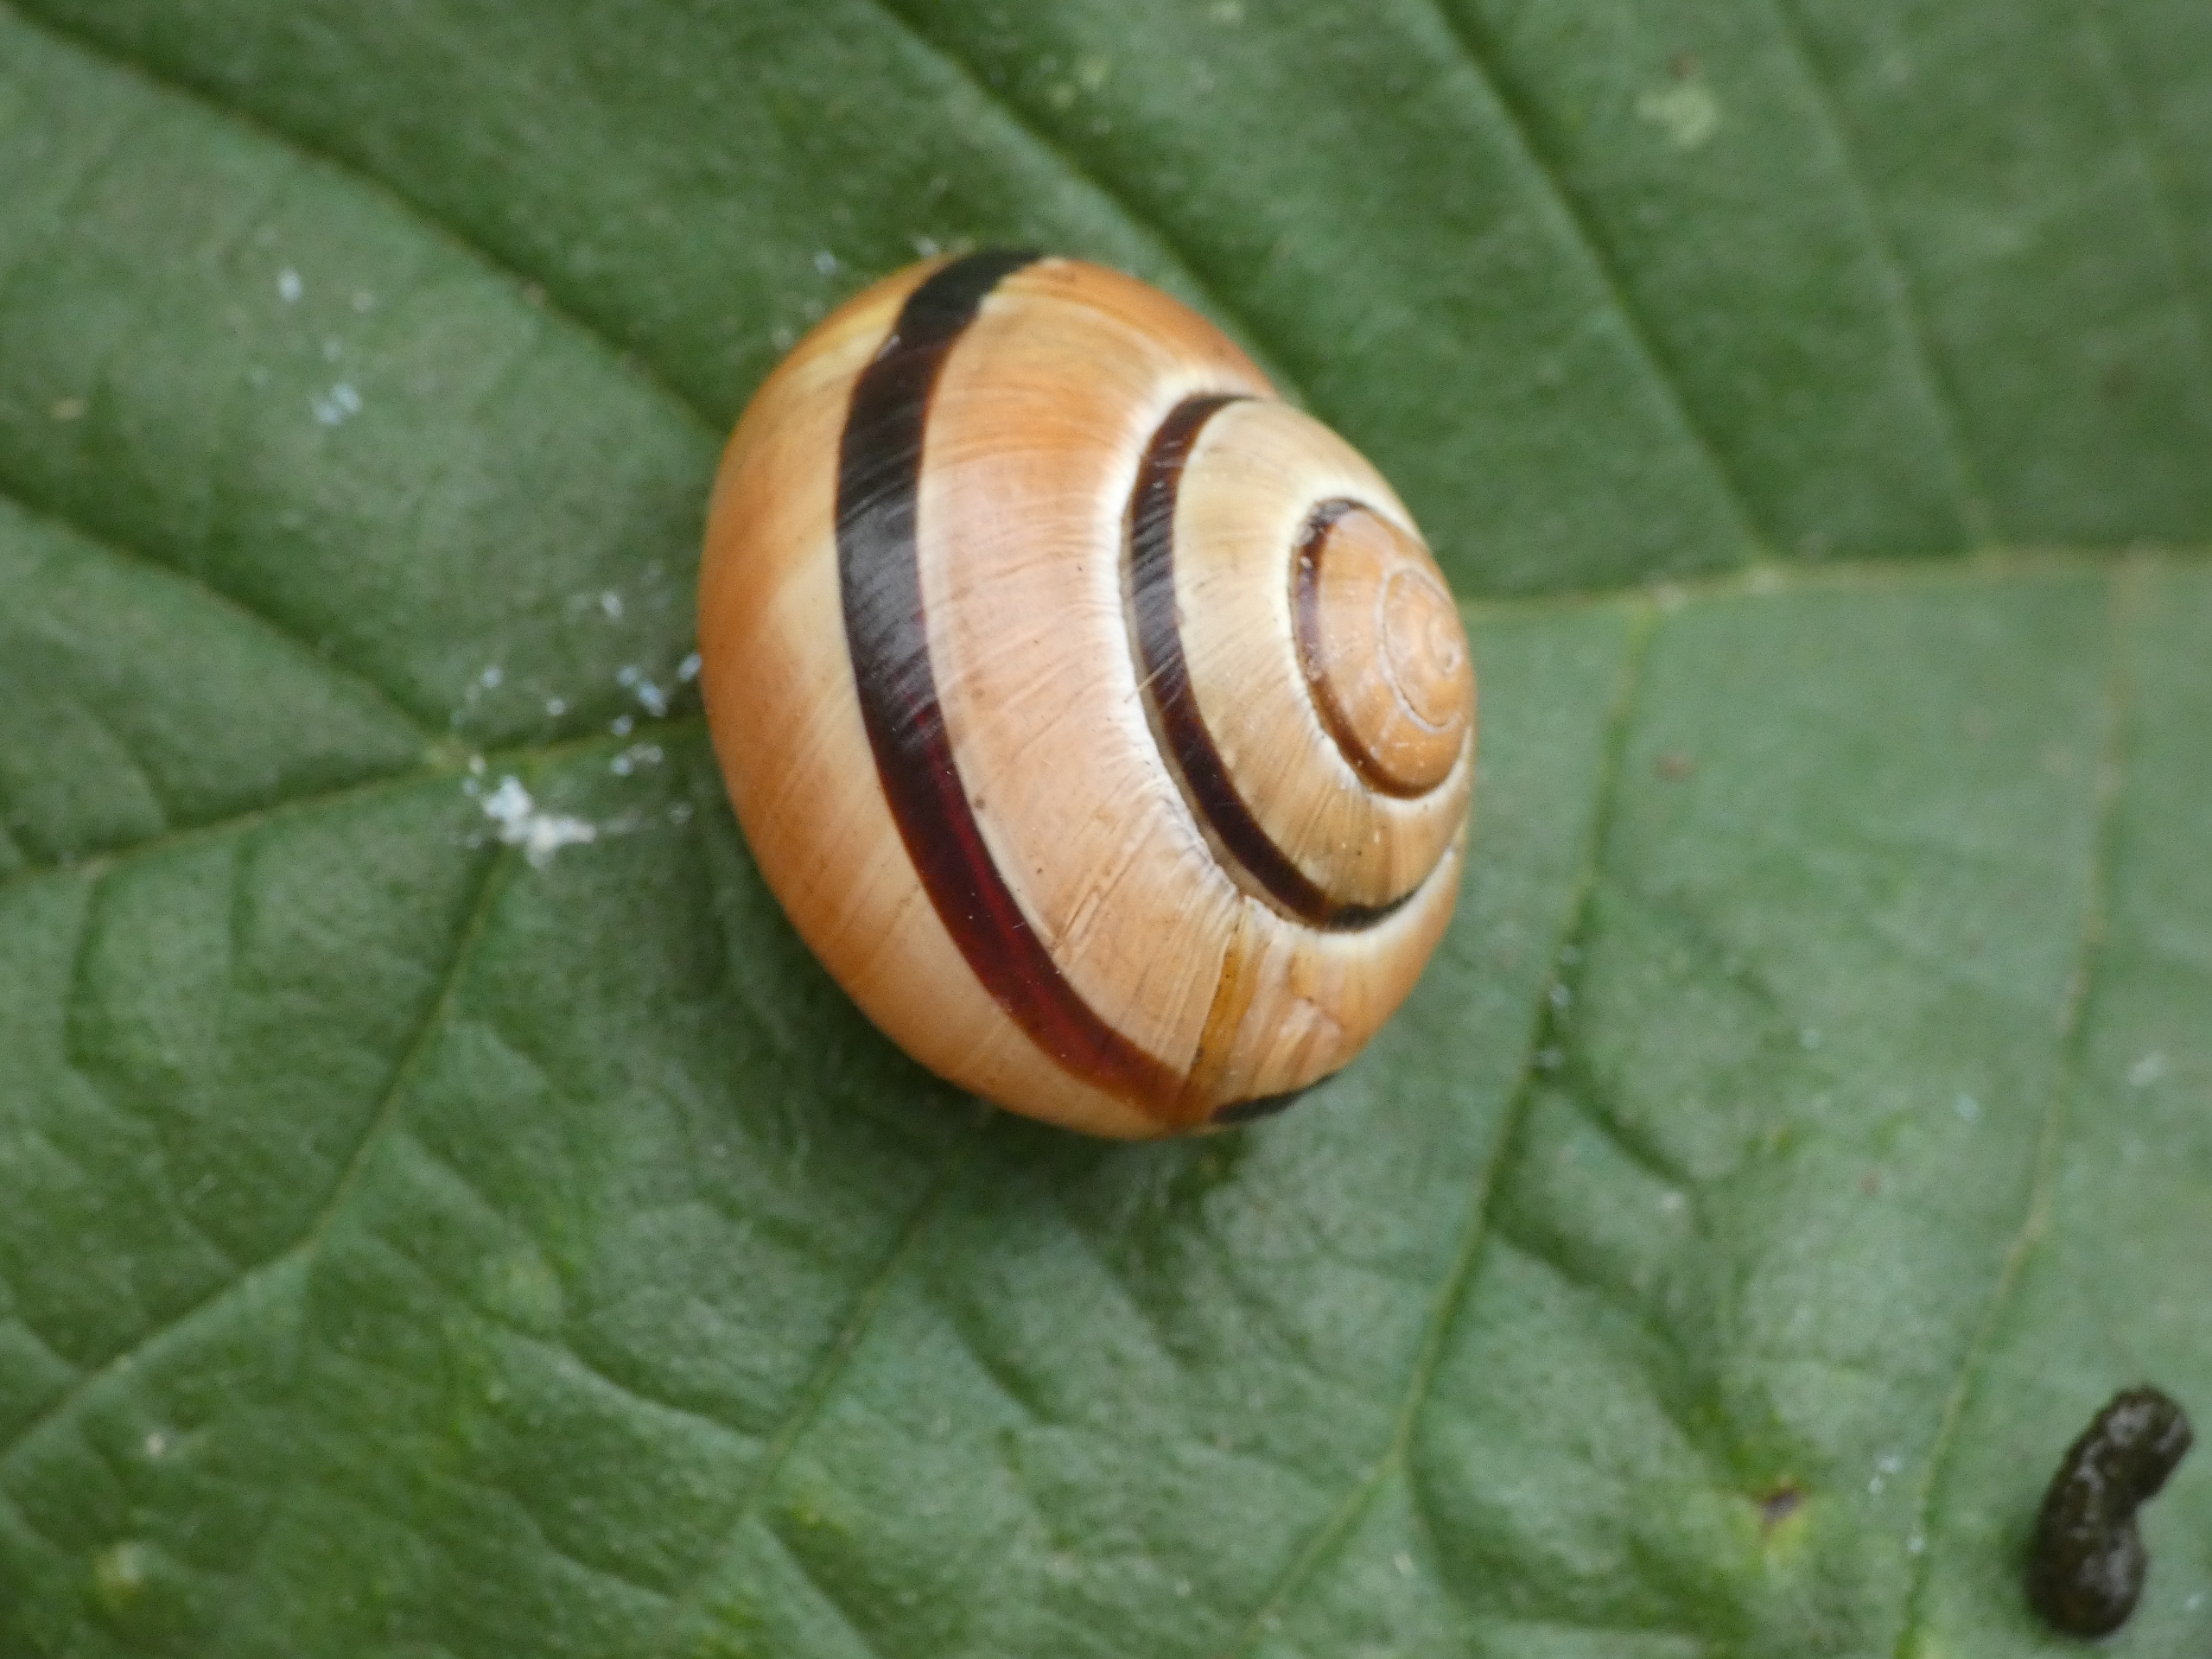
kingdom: Animalia
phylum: Mollusca
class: Gastropoda
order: Stylommatophora
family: Helicidae
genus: Cepaea
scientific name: Cepaea hortensis
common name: Havesnegl
